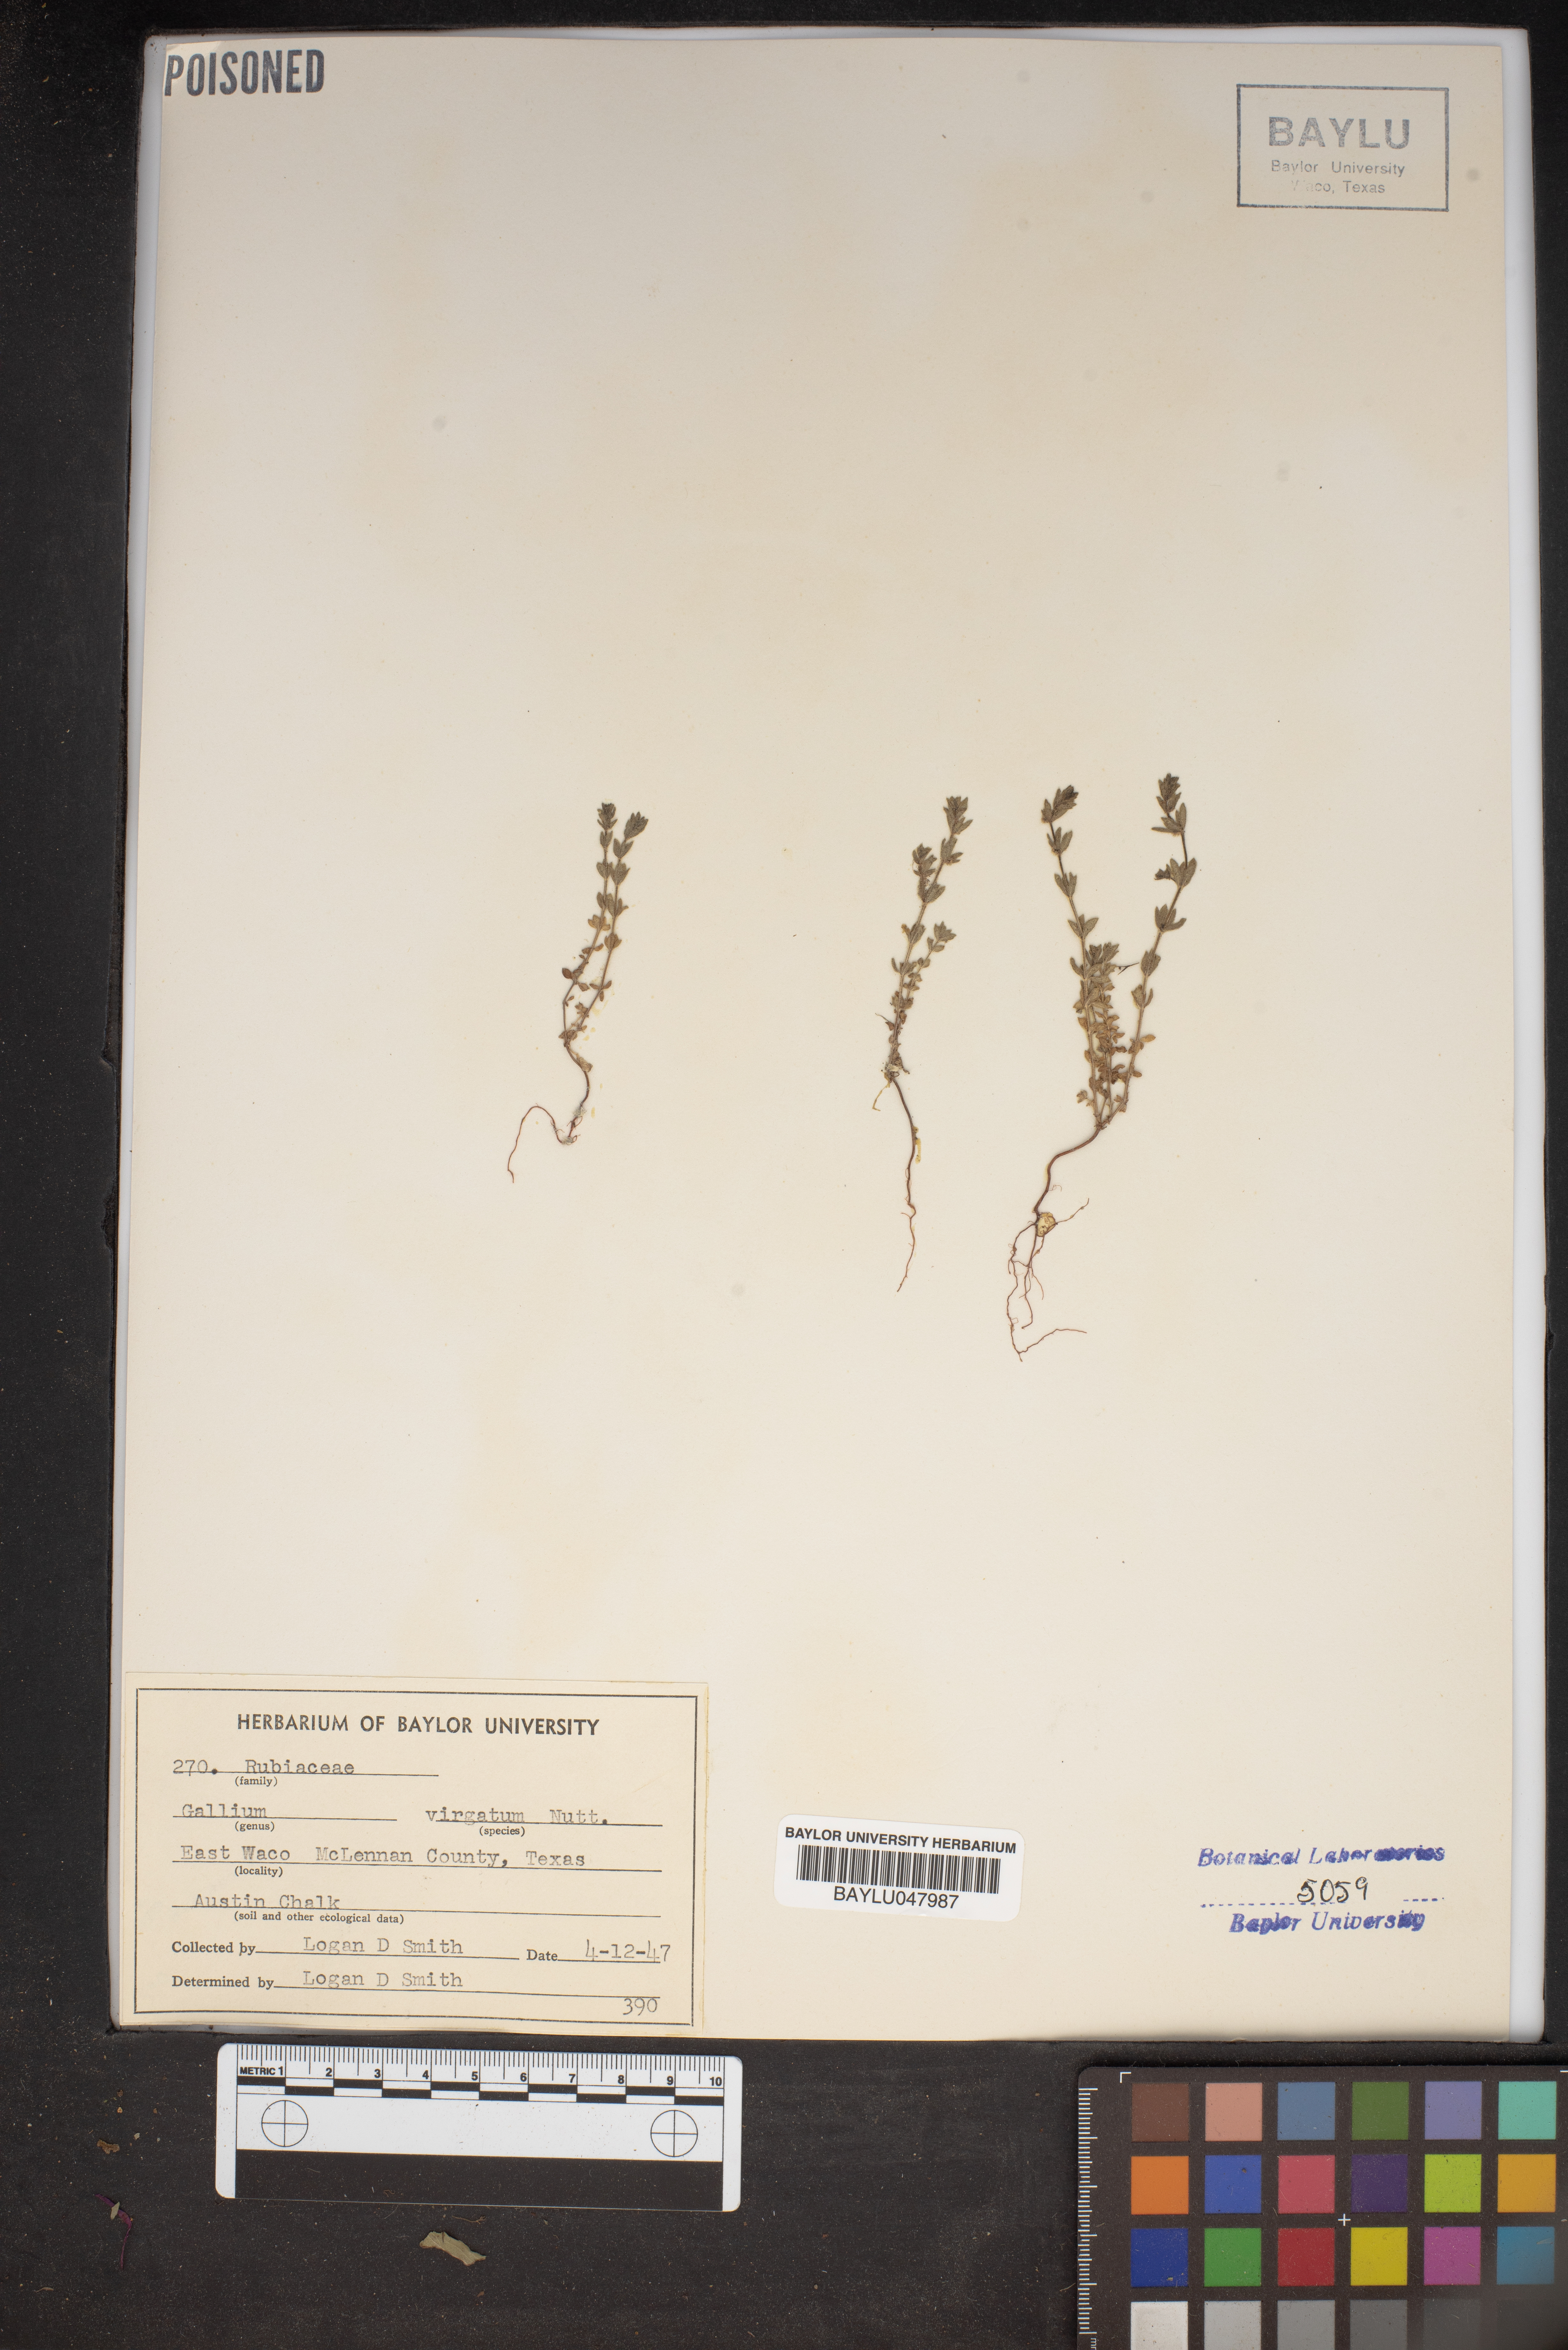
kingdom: Plantae
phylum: Tracheophyta
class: Magnoliopsida
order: Gentianales
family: Rubiaceae
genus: Galium
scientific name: Galium virgatum
